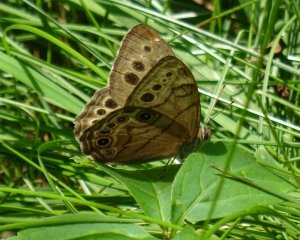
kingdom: Animalia
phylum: Arthropoda
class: Insecta
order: Lepidoptera
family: Nymphalidae
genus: Lethe
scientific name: Lethe anthedon
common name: Northern Pearly-Eye
